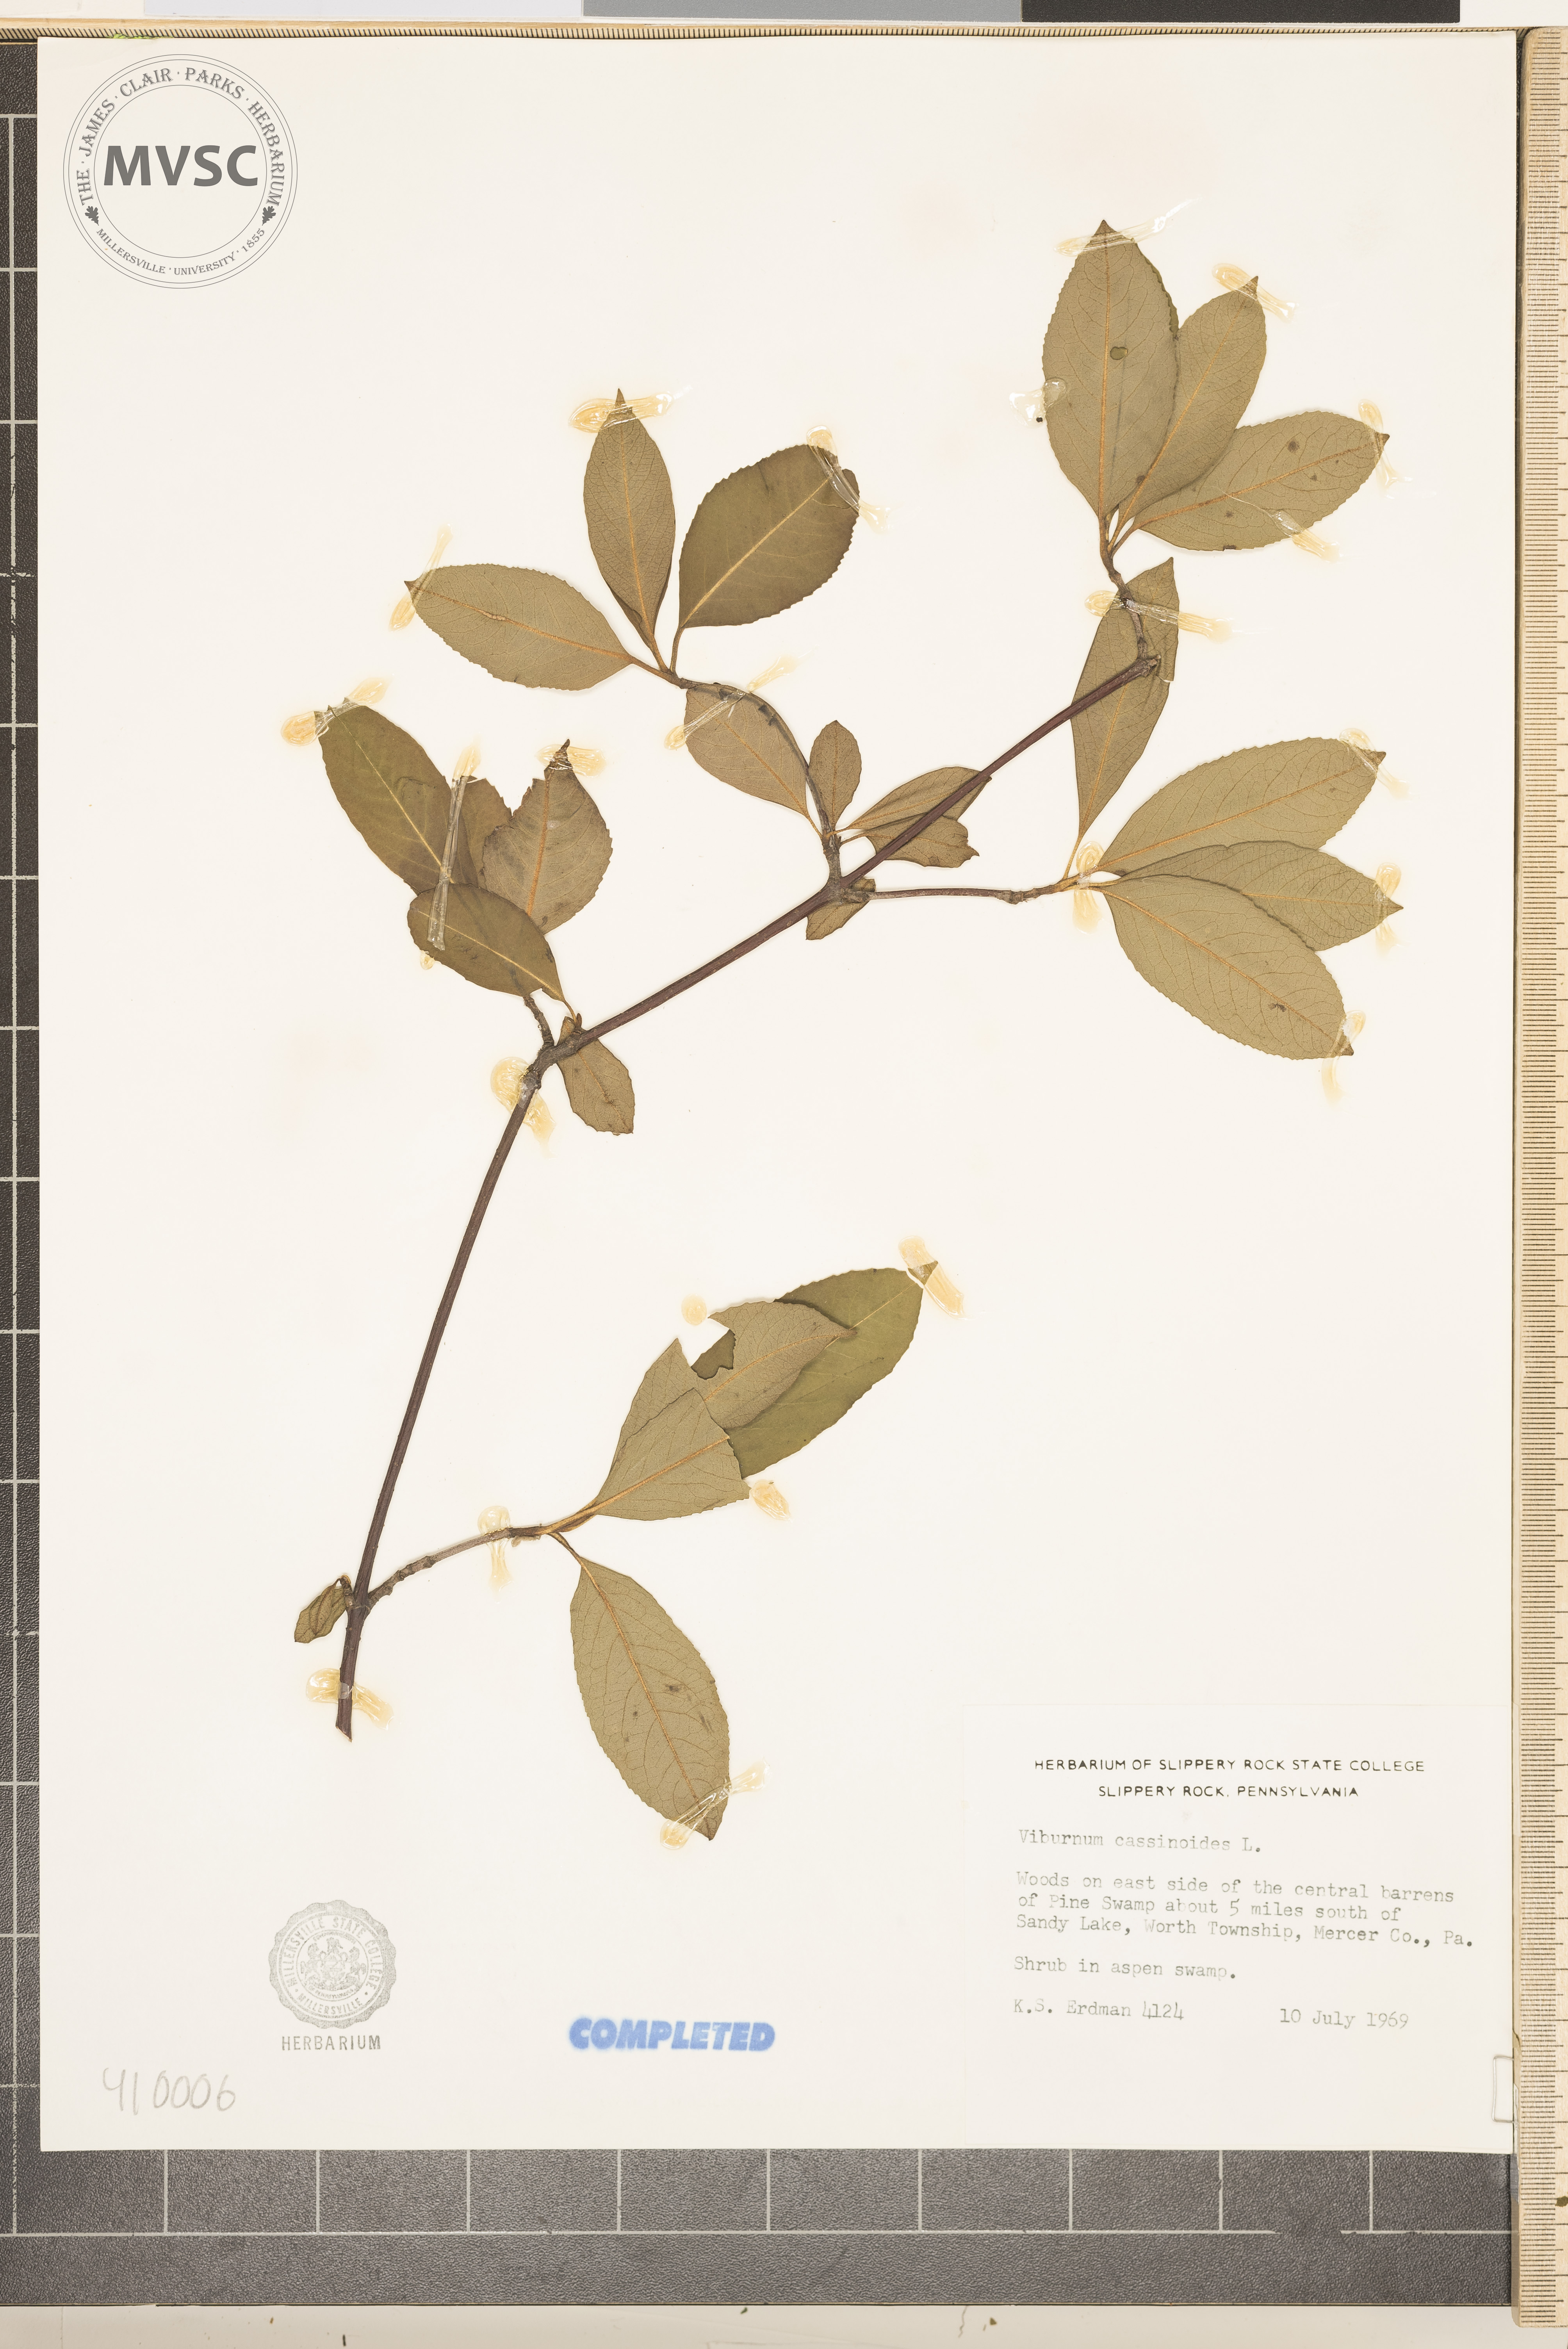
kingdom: Plantae
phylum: Tracheophyta
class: Magnoliopsida
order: Dipsacales
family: Viburnaceae
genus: Viburnum
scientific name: Viburnum cassinoides
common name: Swamp haw
